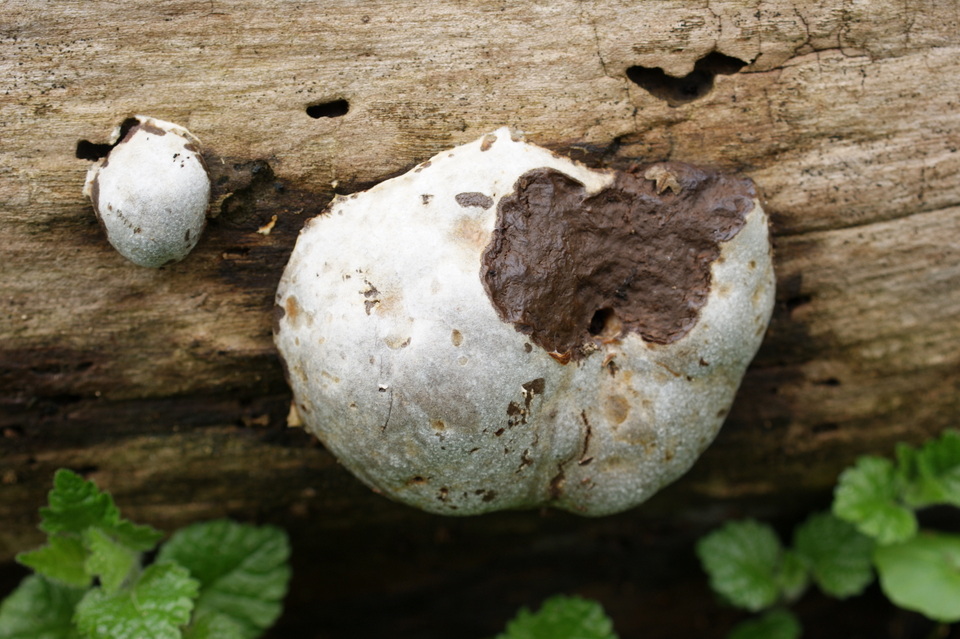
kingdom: Protozoa
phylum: Mycetozoa
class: Myxomycetes
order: Cribrariales
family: Tubiferaceae
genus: Reticularia
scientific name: Reticularia lycoperdon
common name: skinnende støvpude
